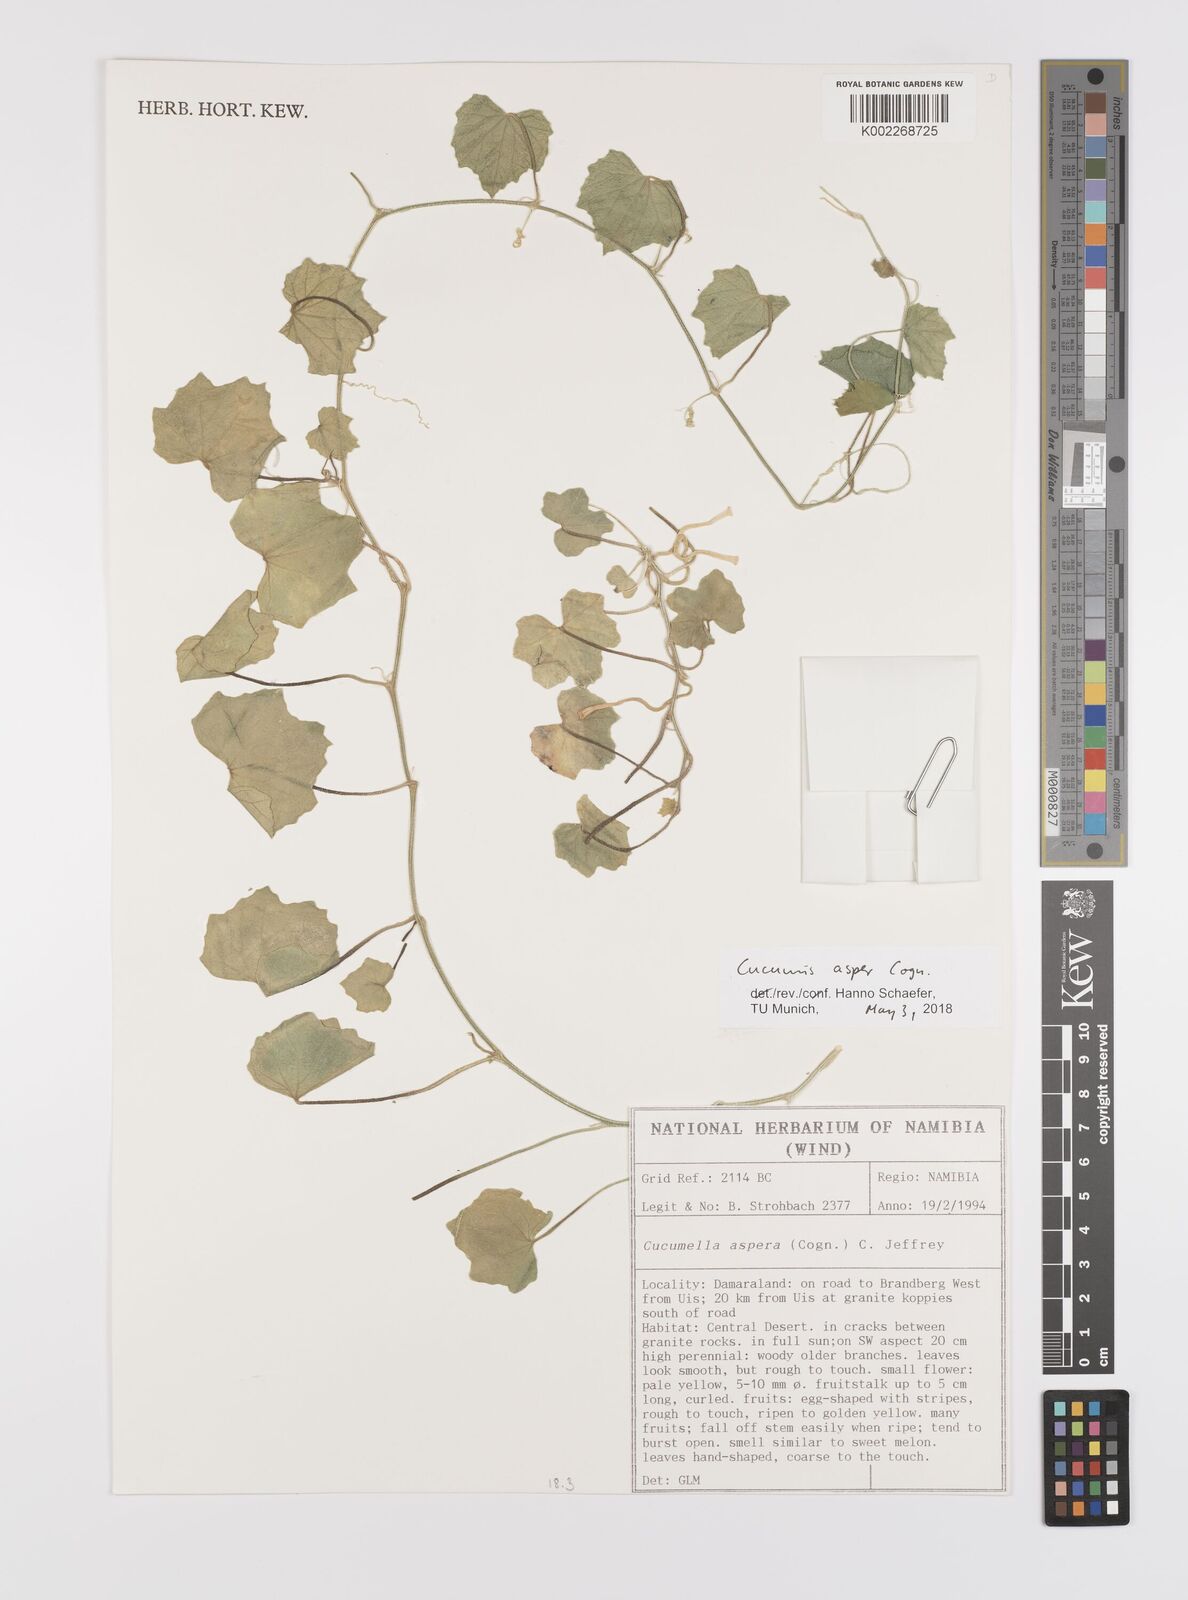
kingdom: Plantae
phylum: Tracheophyta
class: Magnoliopsida
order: Cucurbitales
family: Cucurbitaceae
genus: Cucumis
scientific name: Cucumis asper
